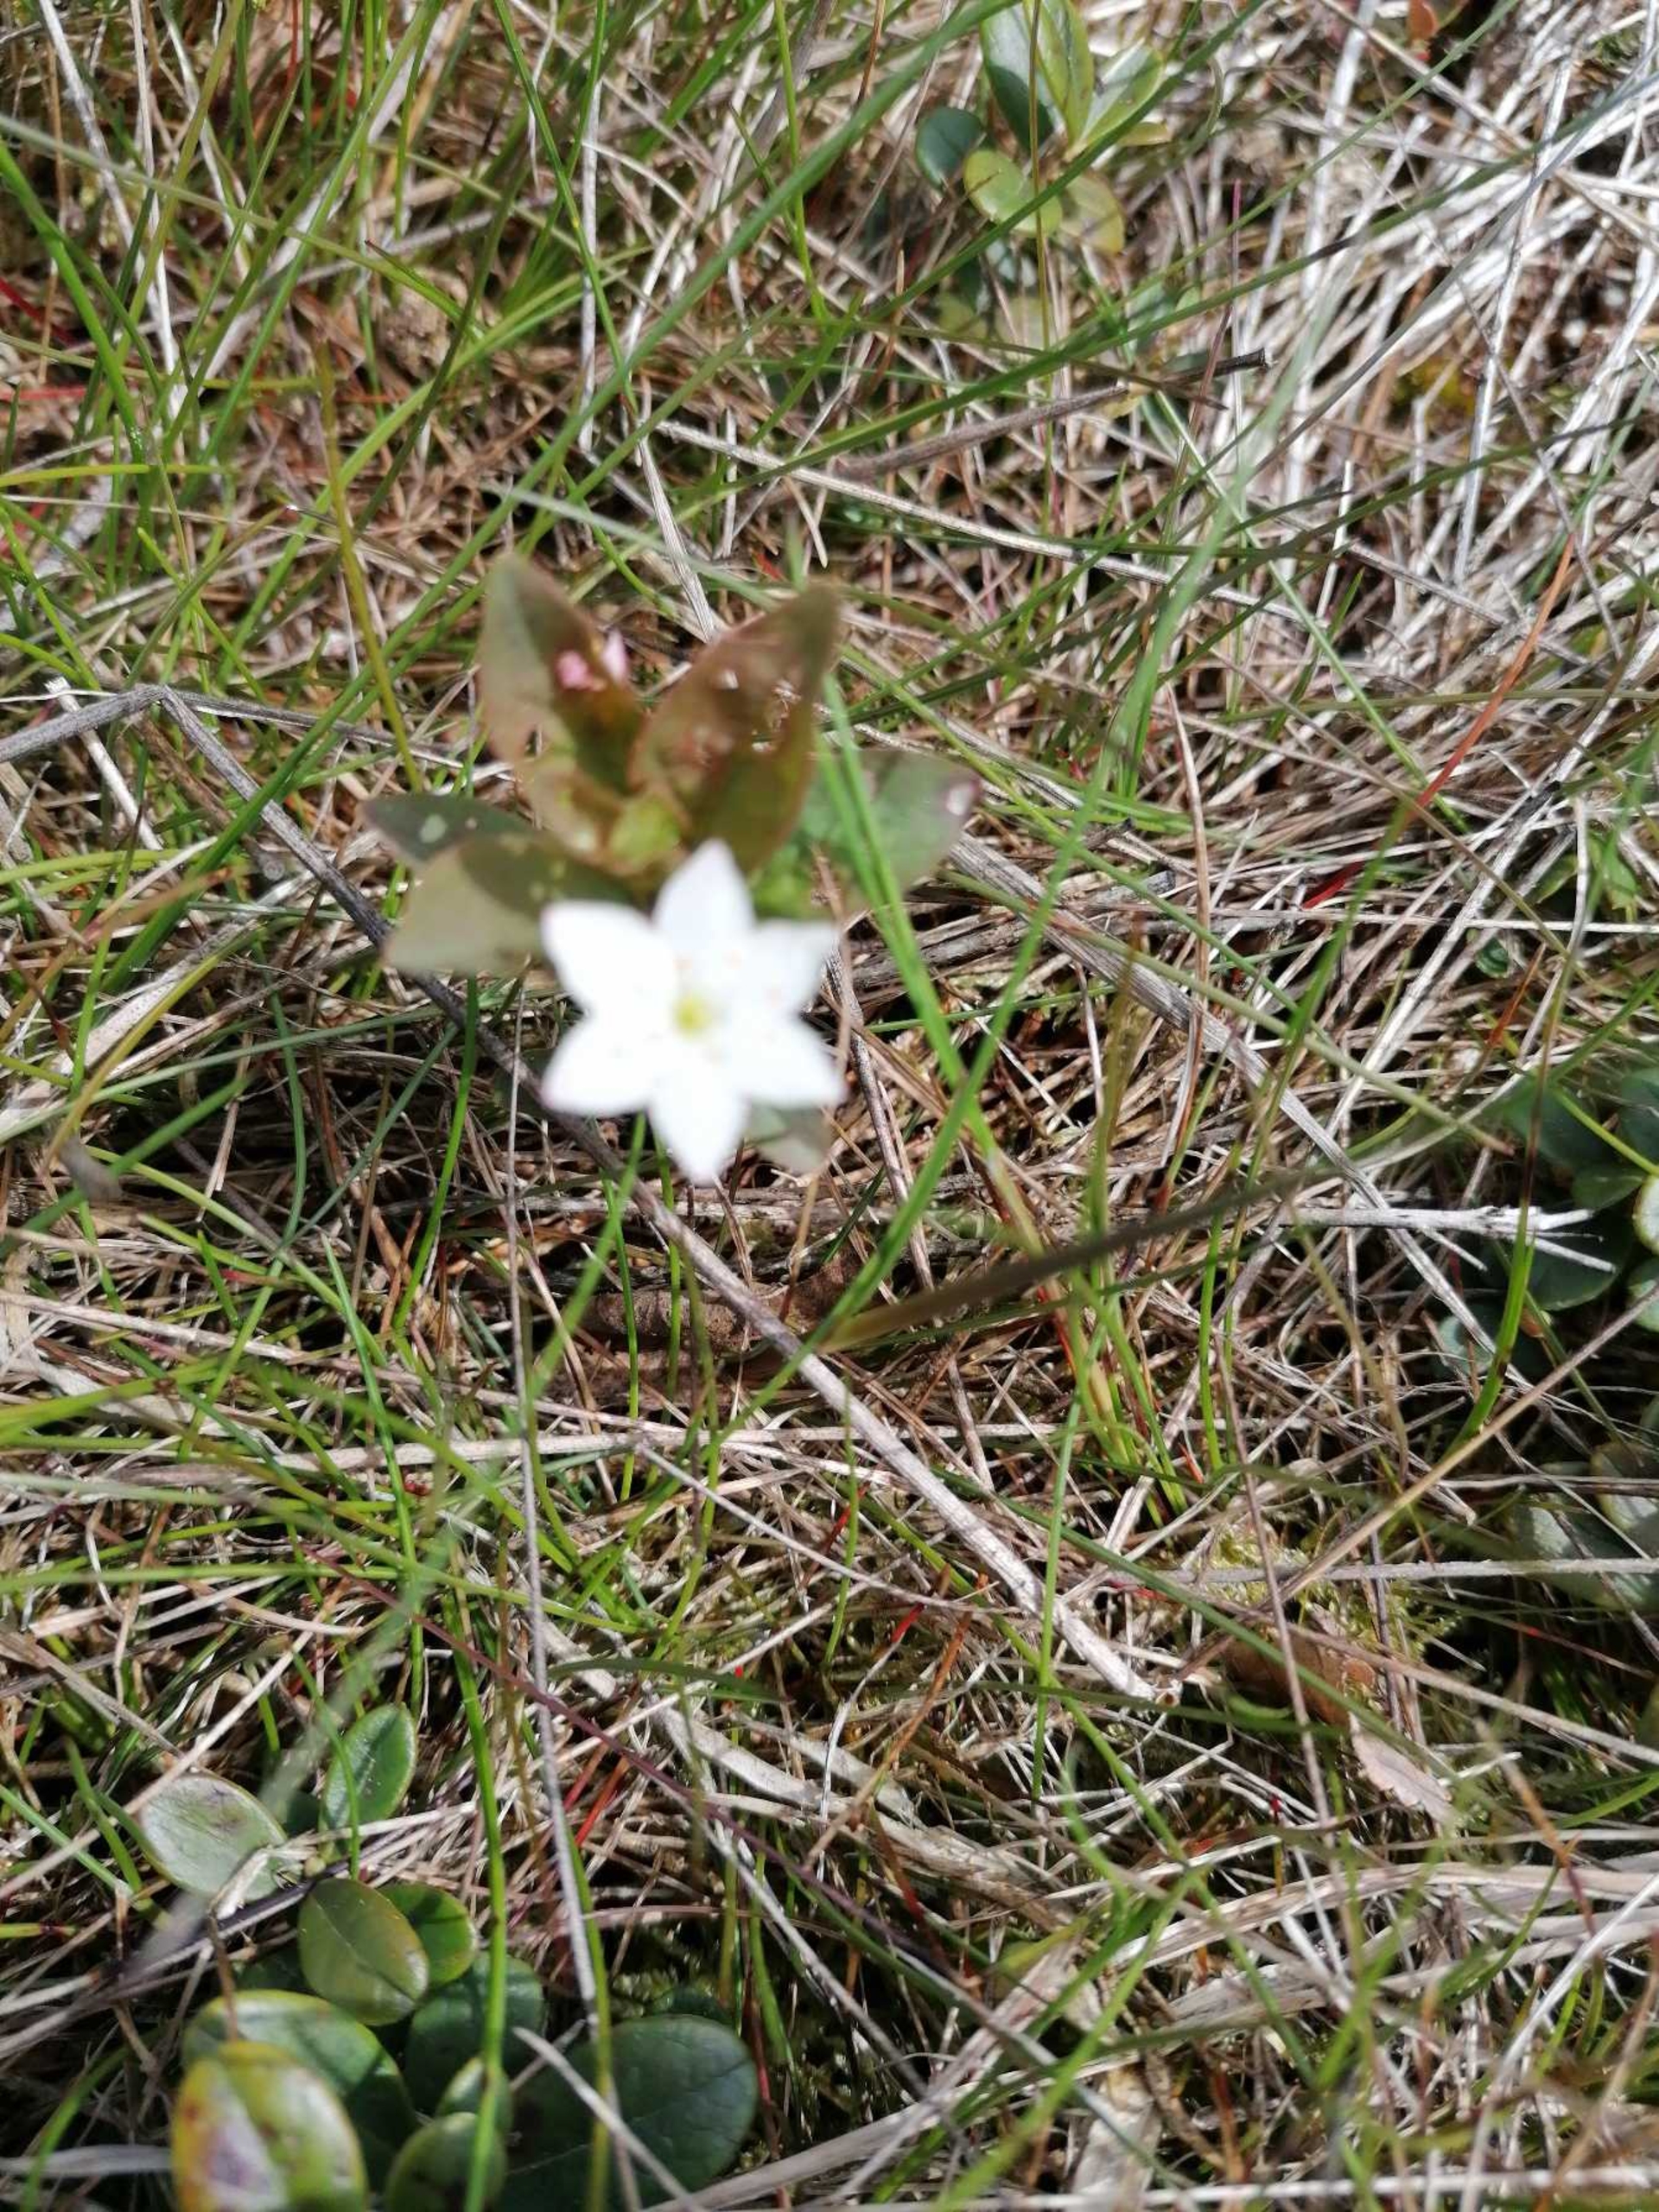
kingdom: Plantae
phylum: Tracheophyta
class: Magnoliopsida
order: Ericales
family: Primulaceae
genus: Lysimachia
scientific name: Lysimachia europaea
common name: Skovstjerne
